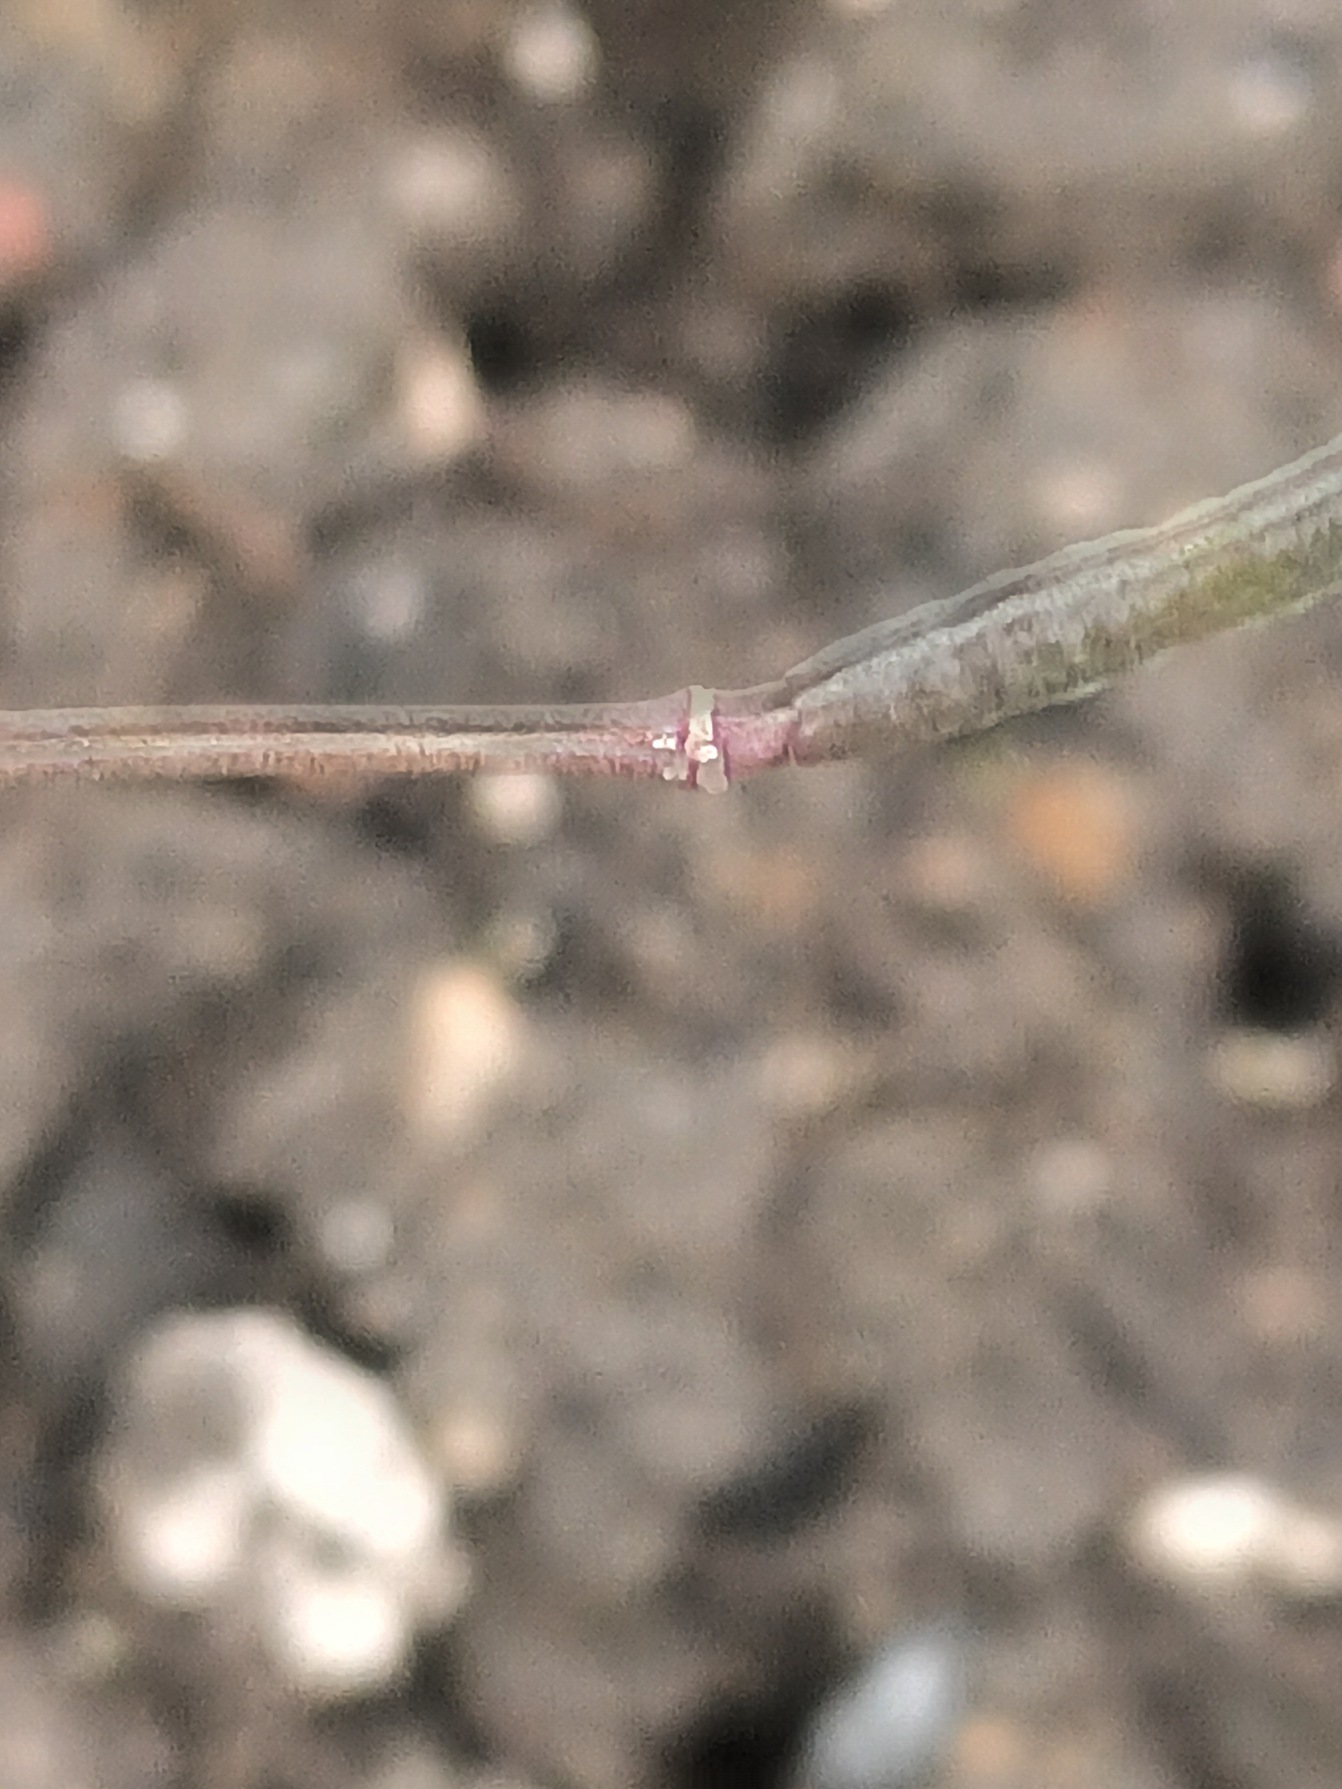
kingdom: Plantae
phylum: Tracheophyta
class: Magnoliopsida
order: Brassicales
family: Brassicaceae
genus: Diplotaxis
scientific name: Diplotaxis tenuifolia
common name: Sandsennep
